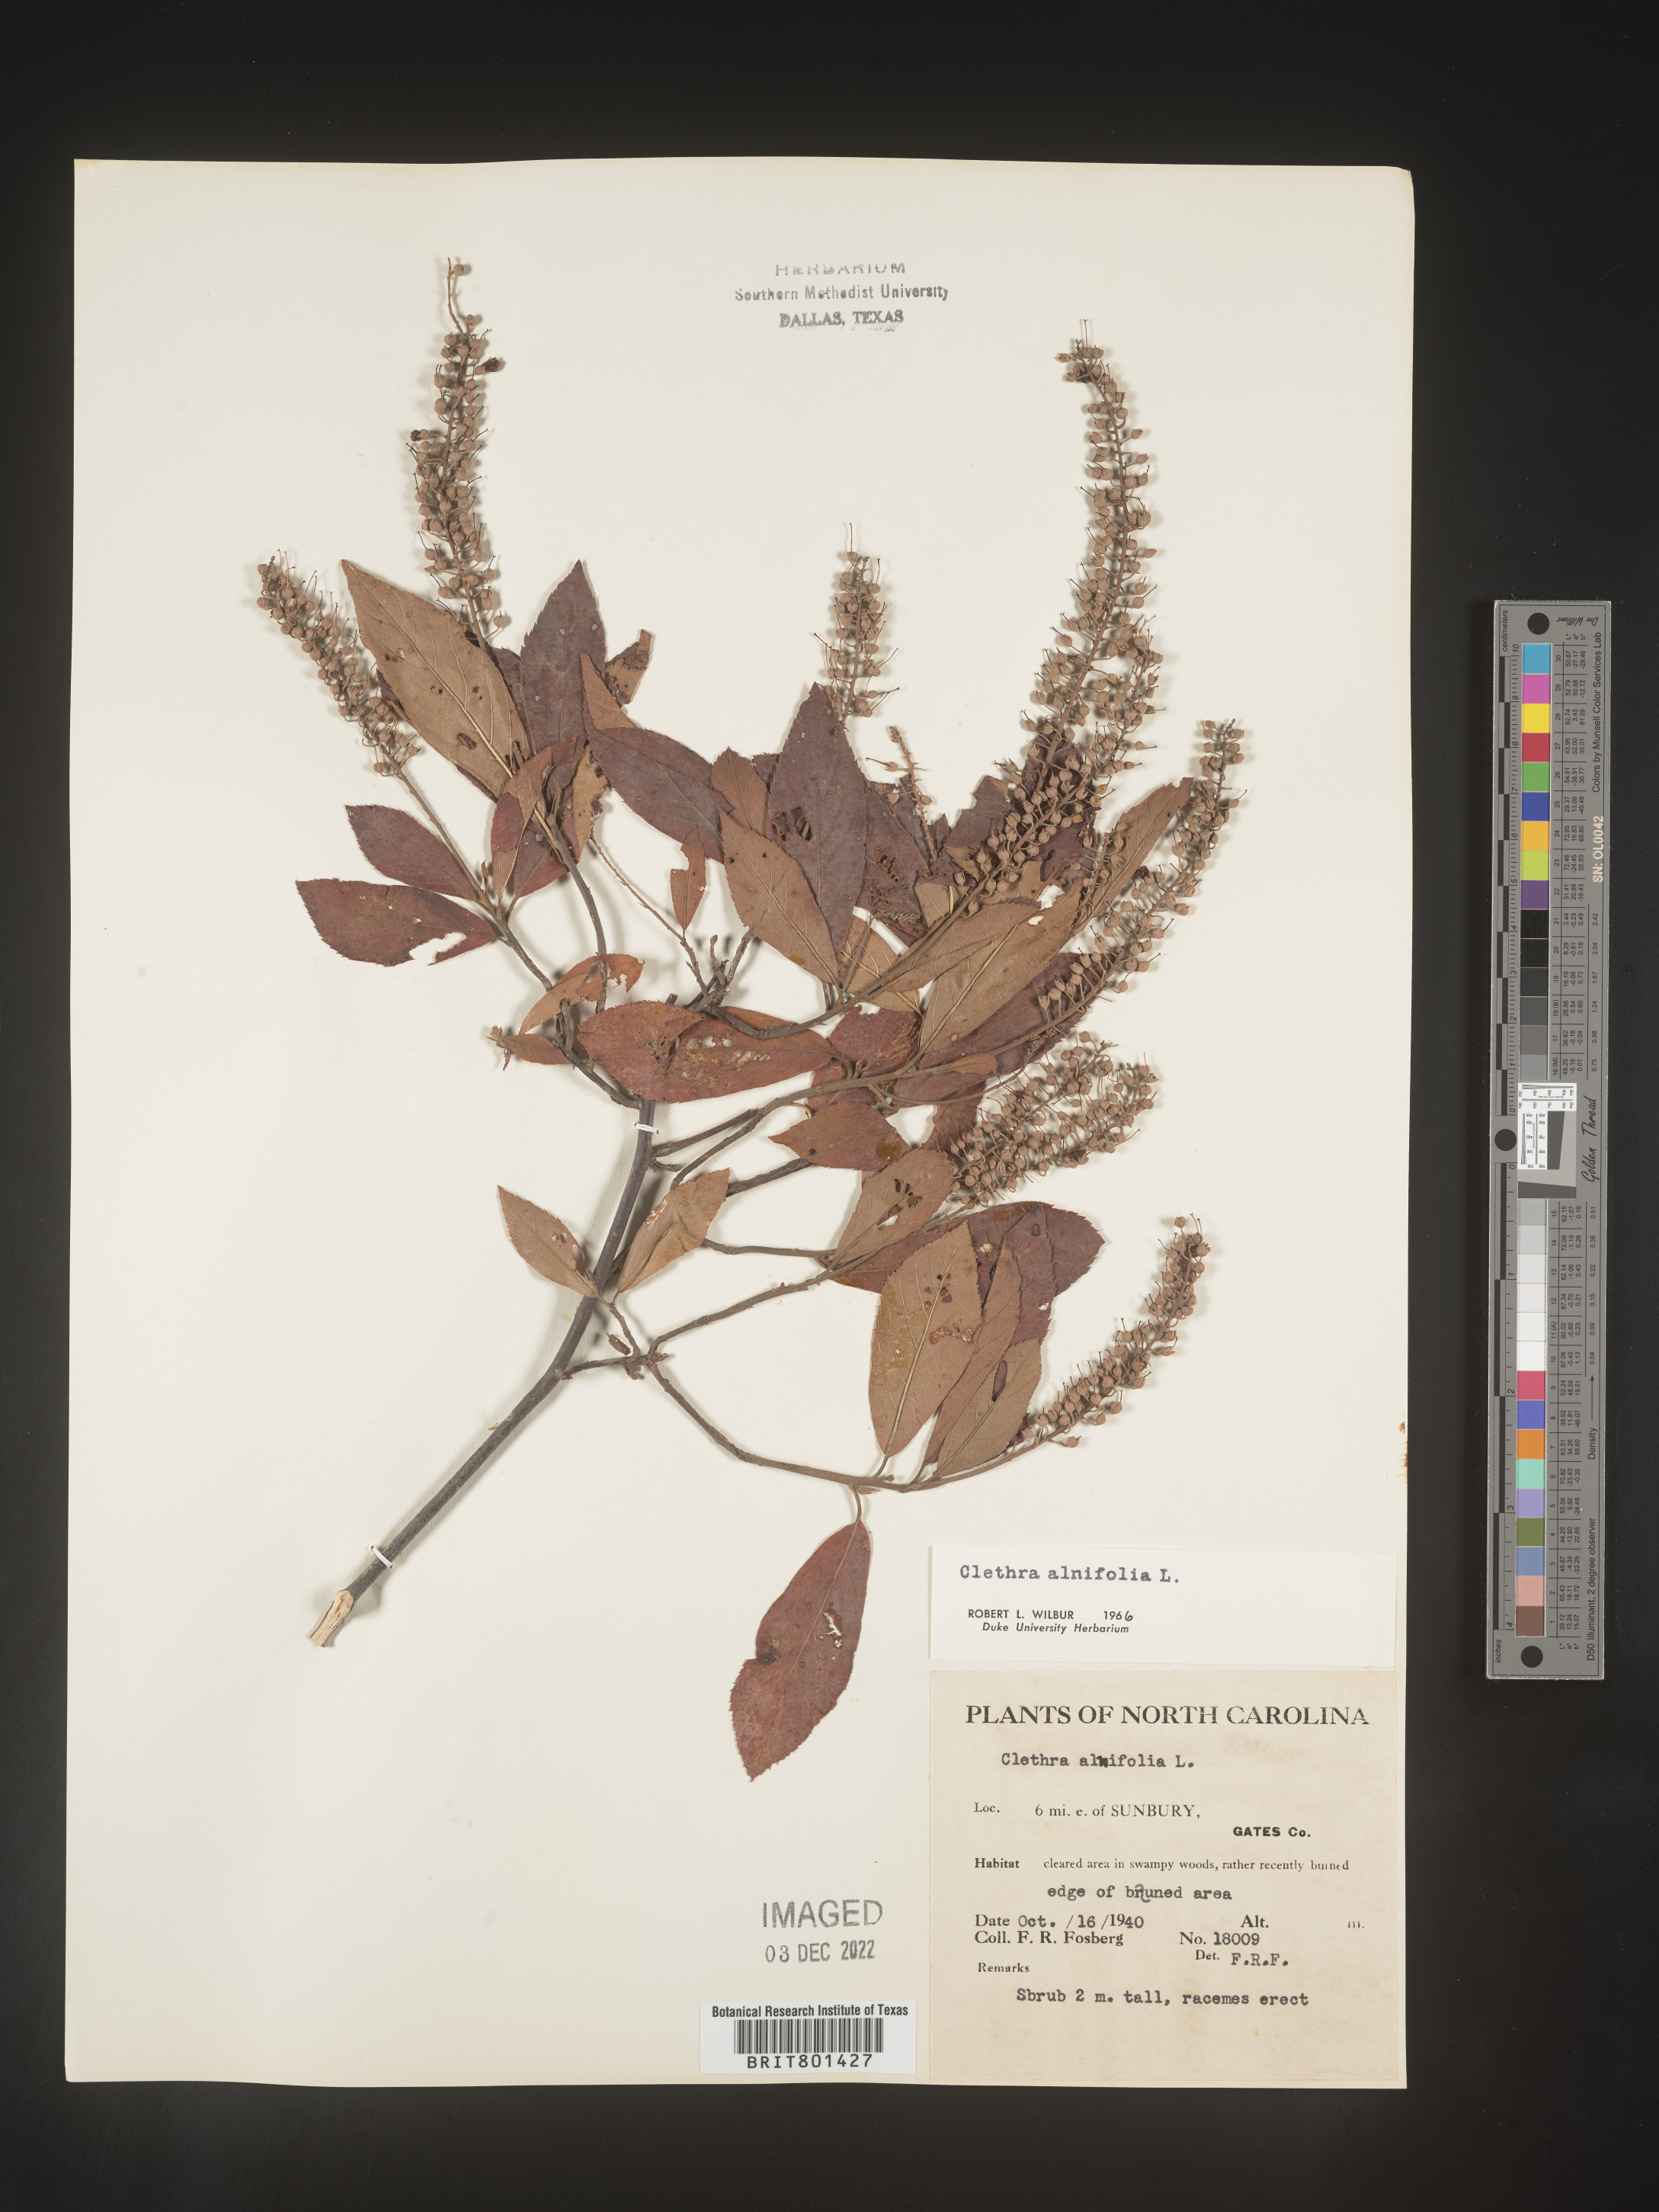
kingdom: Plantae
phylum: Tracheophyta
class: Magnoliopsida
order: Ericales
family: Clethraceae
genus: Clethra
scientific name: Clethra alnifolia
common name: Sweet pepperbush
